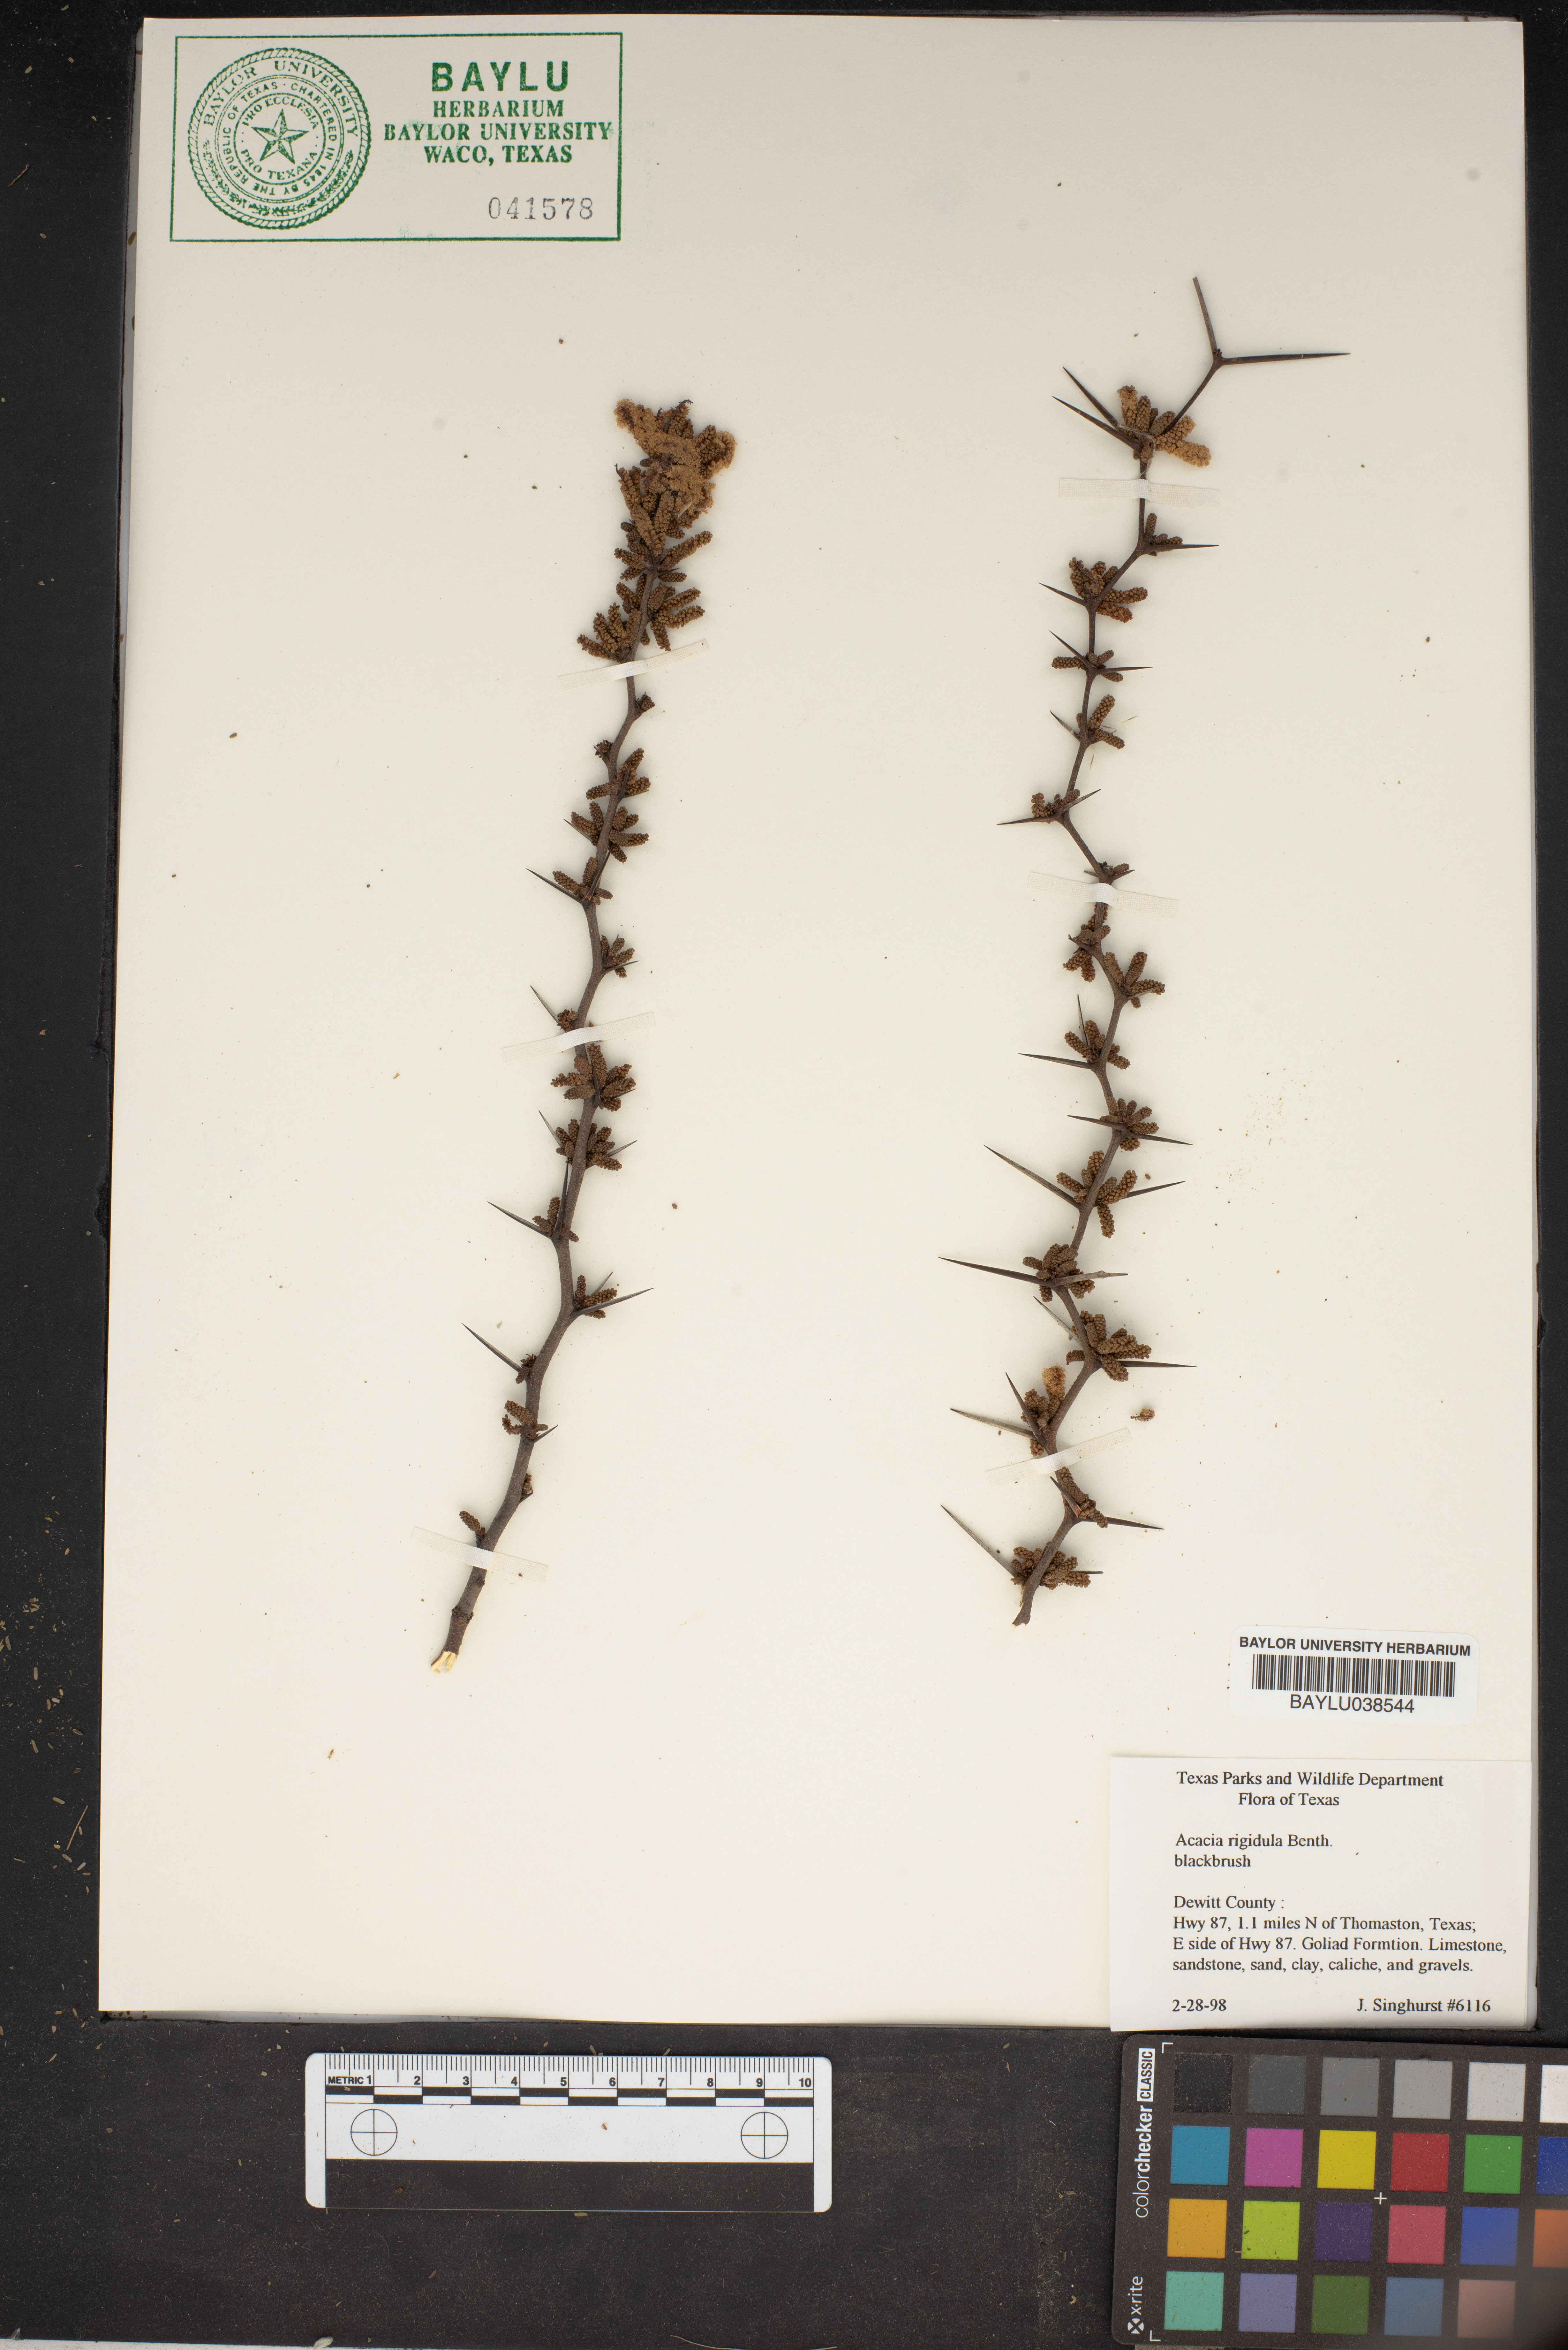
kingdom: Plantae
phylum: Tracheophyta
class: Magnoliopsida
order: Fabales
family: Fabaceae
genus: Vachellia
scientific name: Vachellia rigidula
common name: Blackbrush
